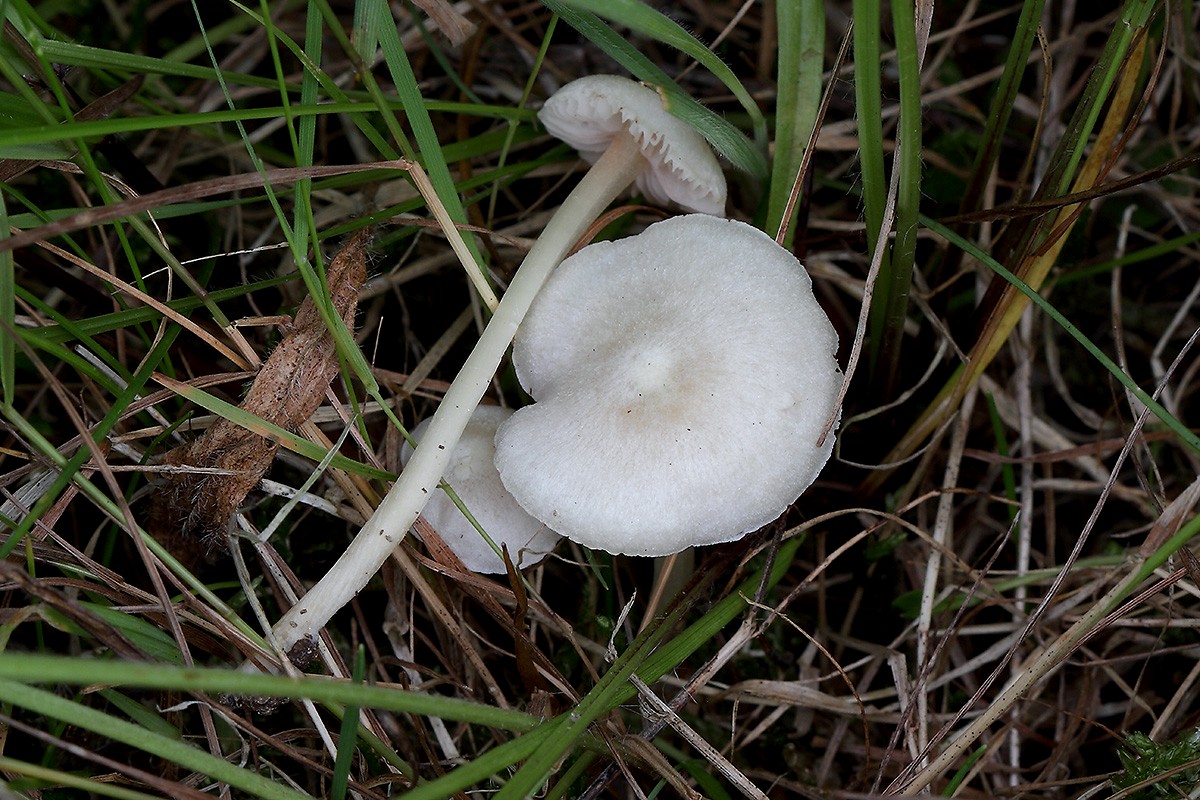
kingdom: Fungi
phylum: Basidiomycota
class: Agaricomycetes
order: Agaricales
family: Entolomataceae
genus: Entoloma
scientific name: Entoloma sericellum
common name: silkehvid rødblad
